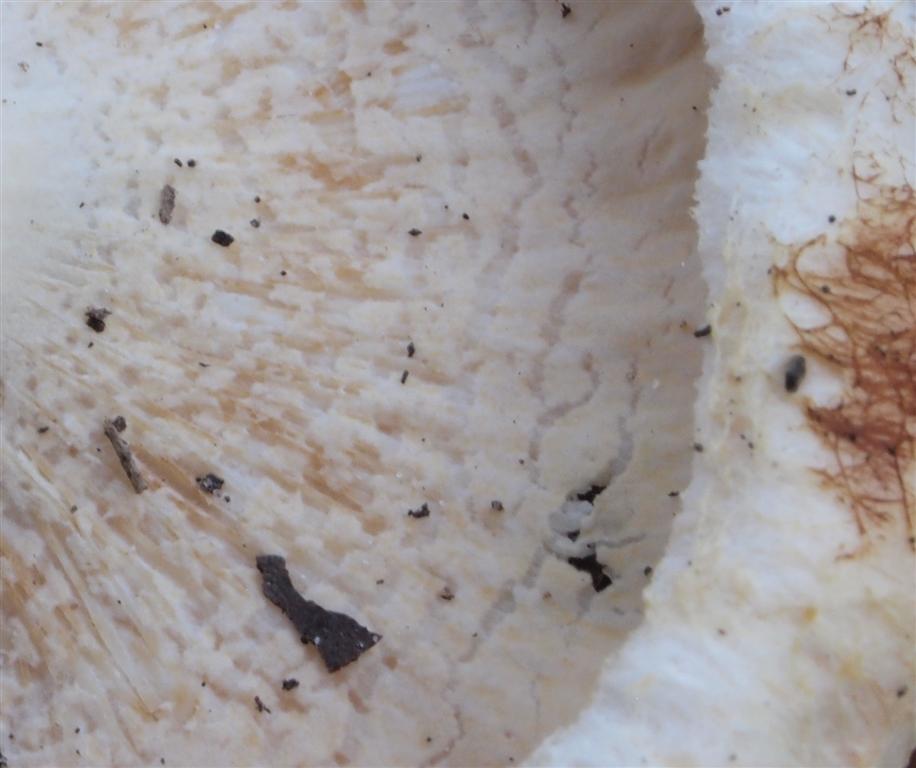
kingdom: Fungi
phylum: Ascomycota
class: Sordariomycetes
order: Hypocreales
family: Hypocreaceae
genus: Hypomyces
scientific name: Hypomyces spadiceus
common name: mælkeskæg-snylteskorpe
